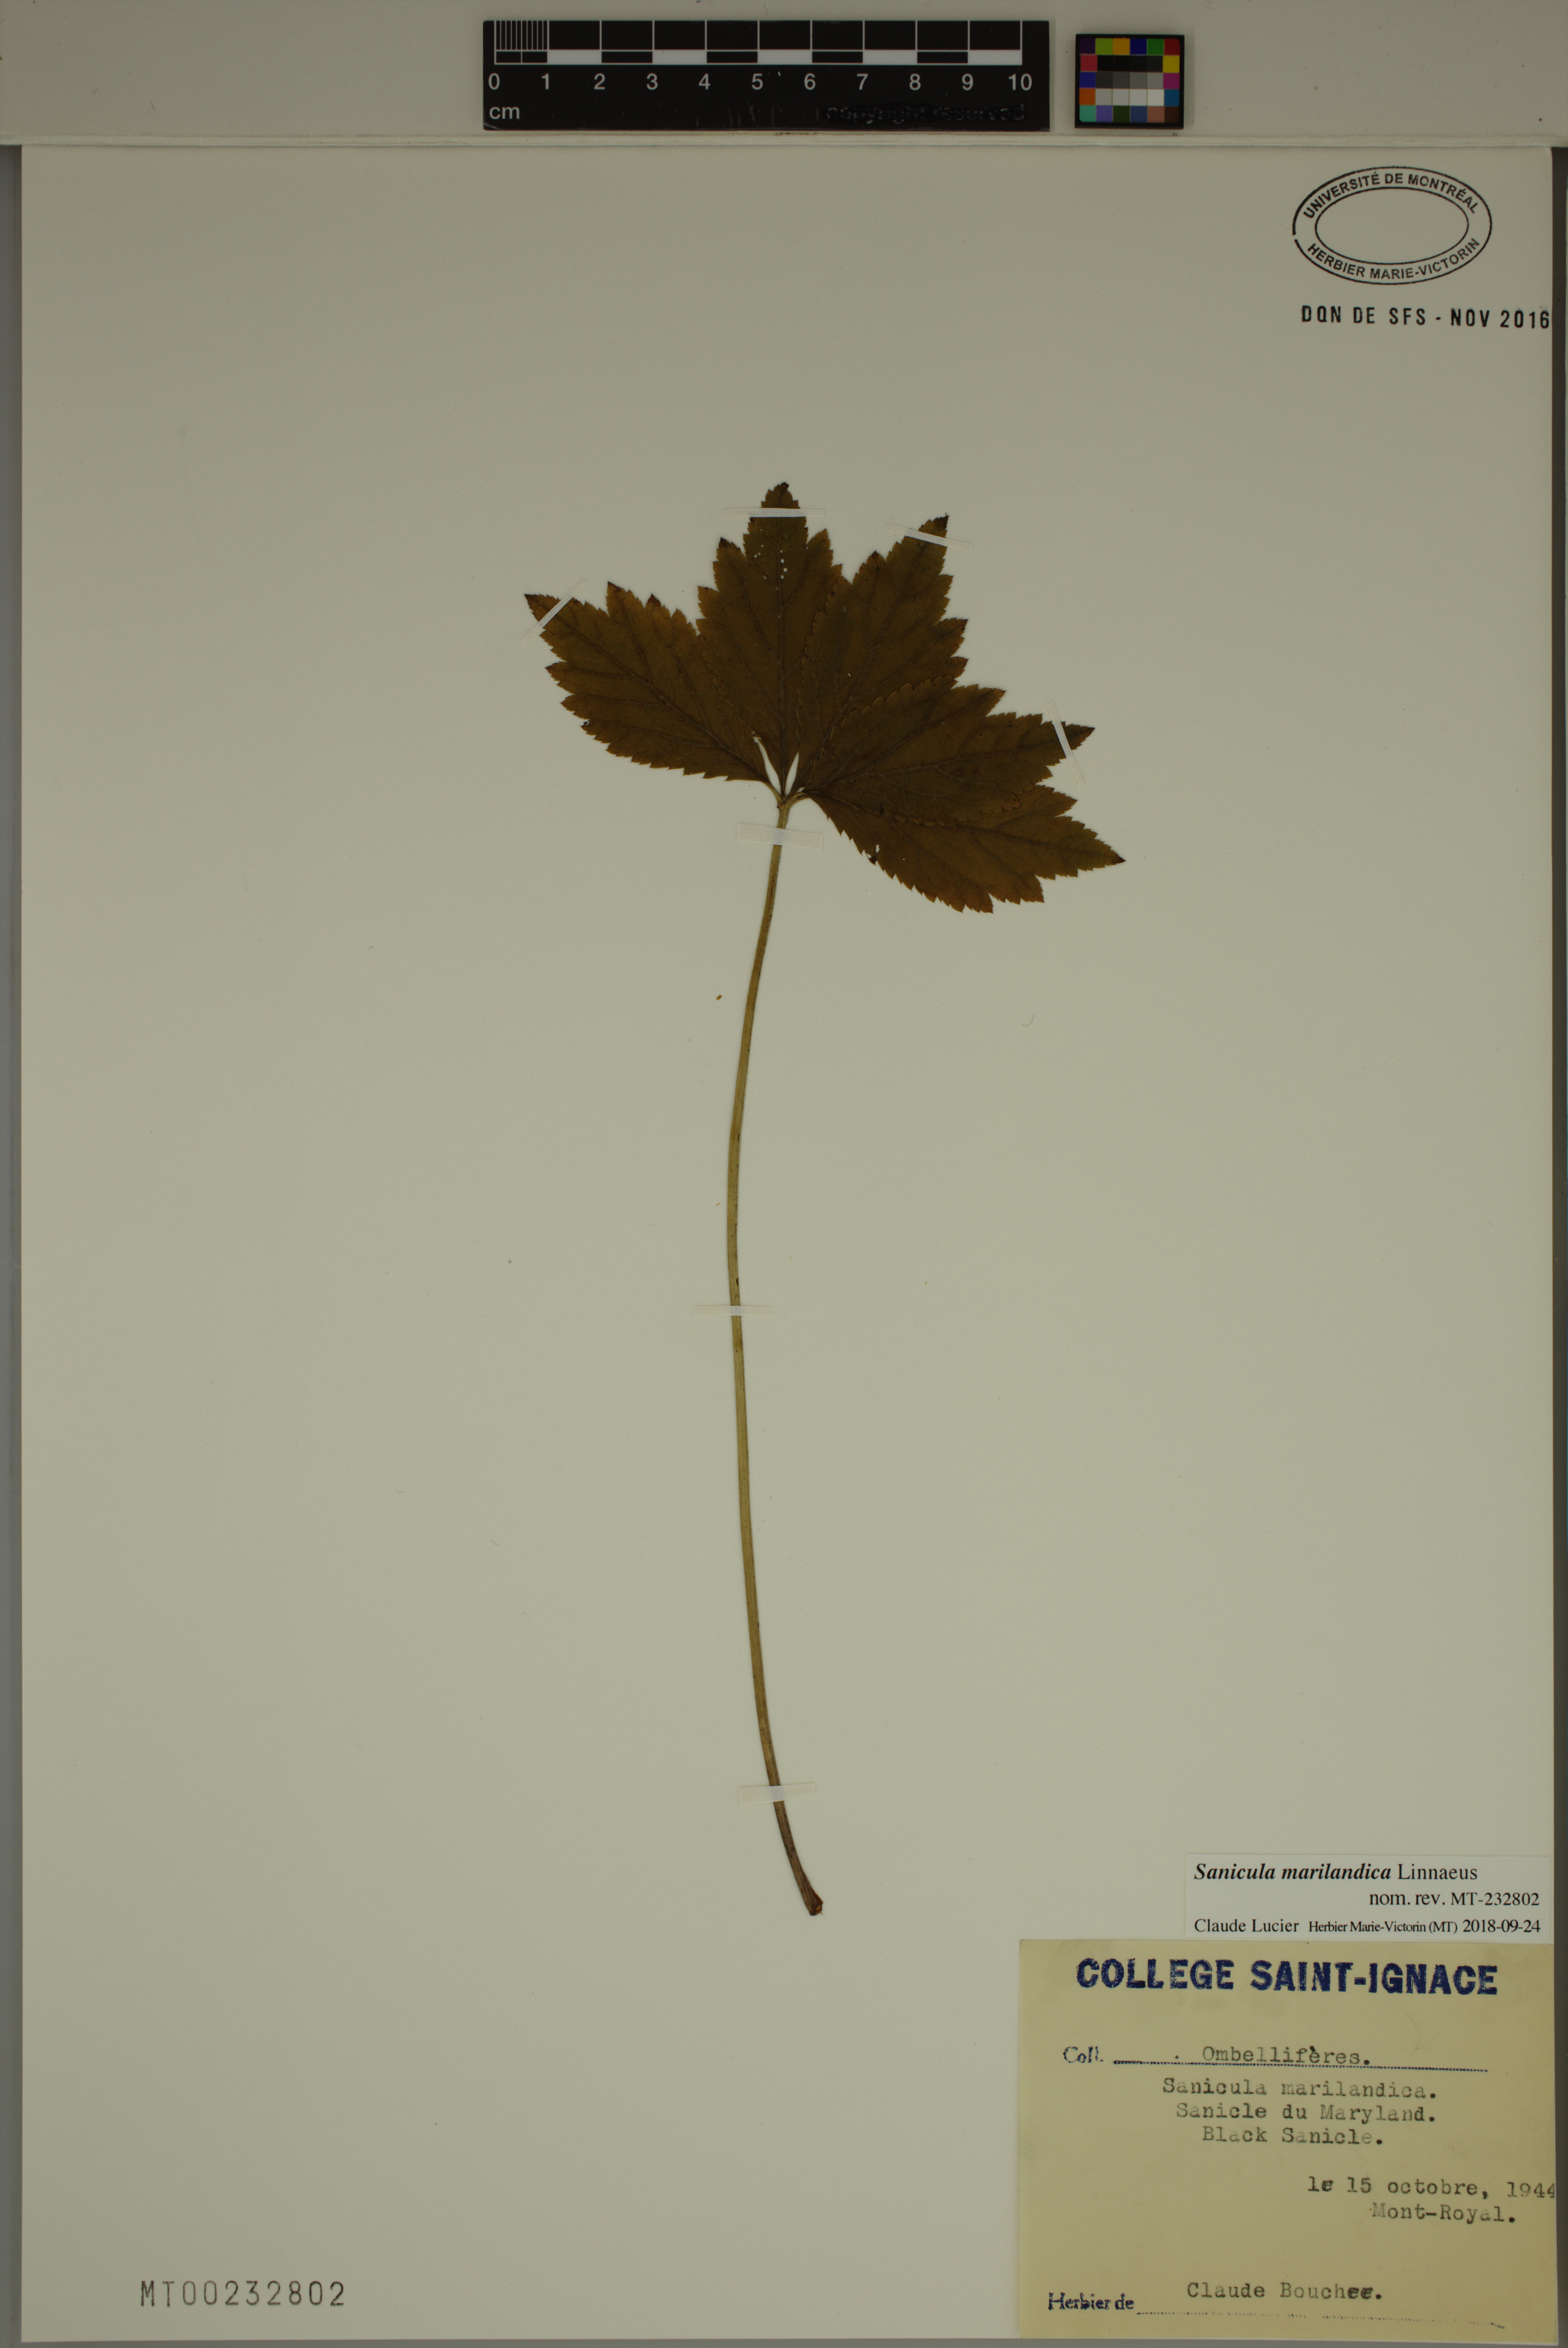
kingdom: Plantae
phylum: Tracheophyta
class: Magnoliopsida
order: Apiales
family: Apiaceae
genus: Sanicula
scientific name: Sanicula marilandica
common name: Black snakeroot
